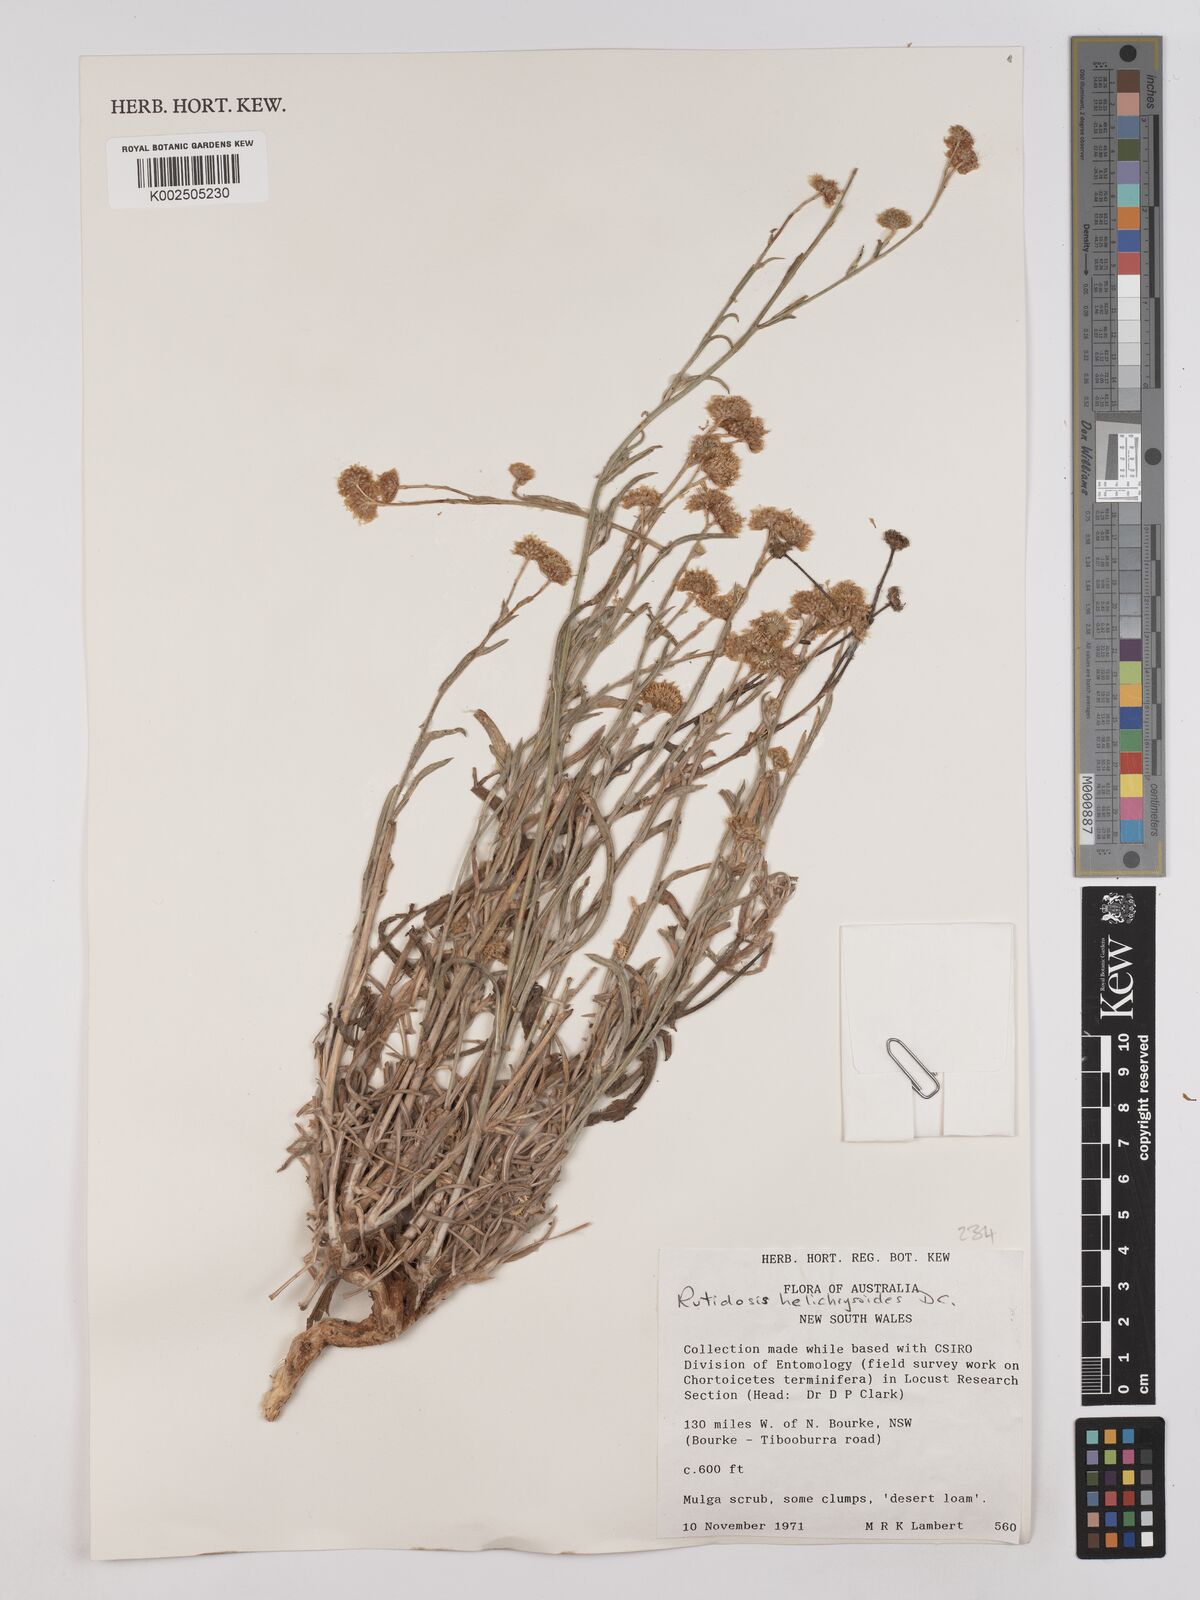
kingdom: Plantae
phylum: Tracheophyta
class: Magnoliopsida
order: Asterales
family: Asteraceae
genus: Rutidosis
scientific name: Rutidosis helichrysoides
